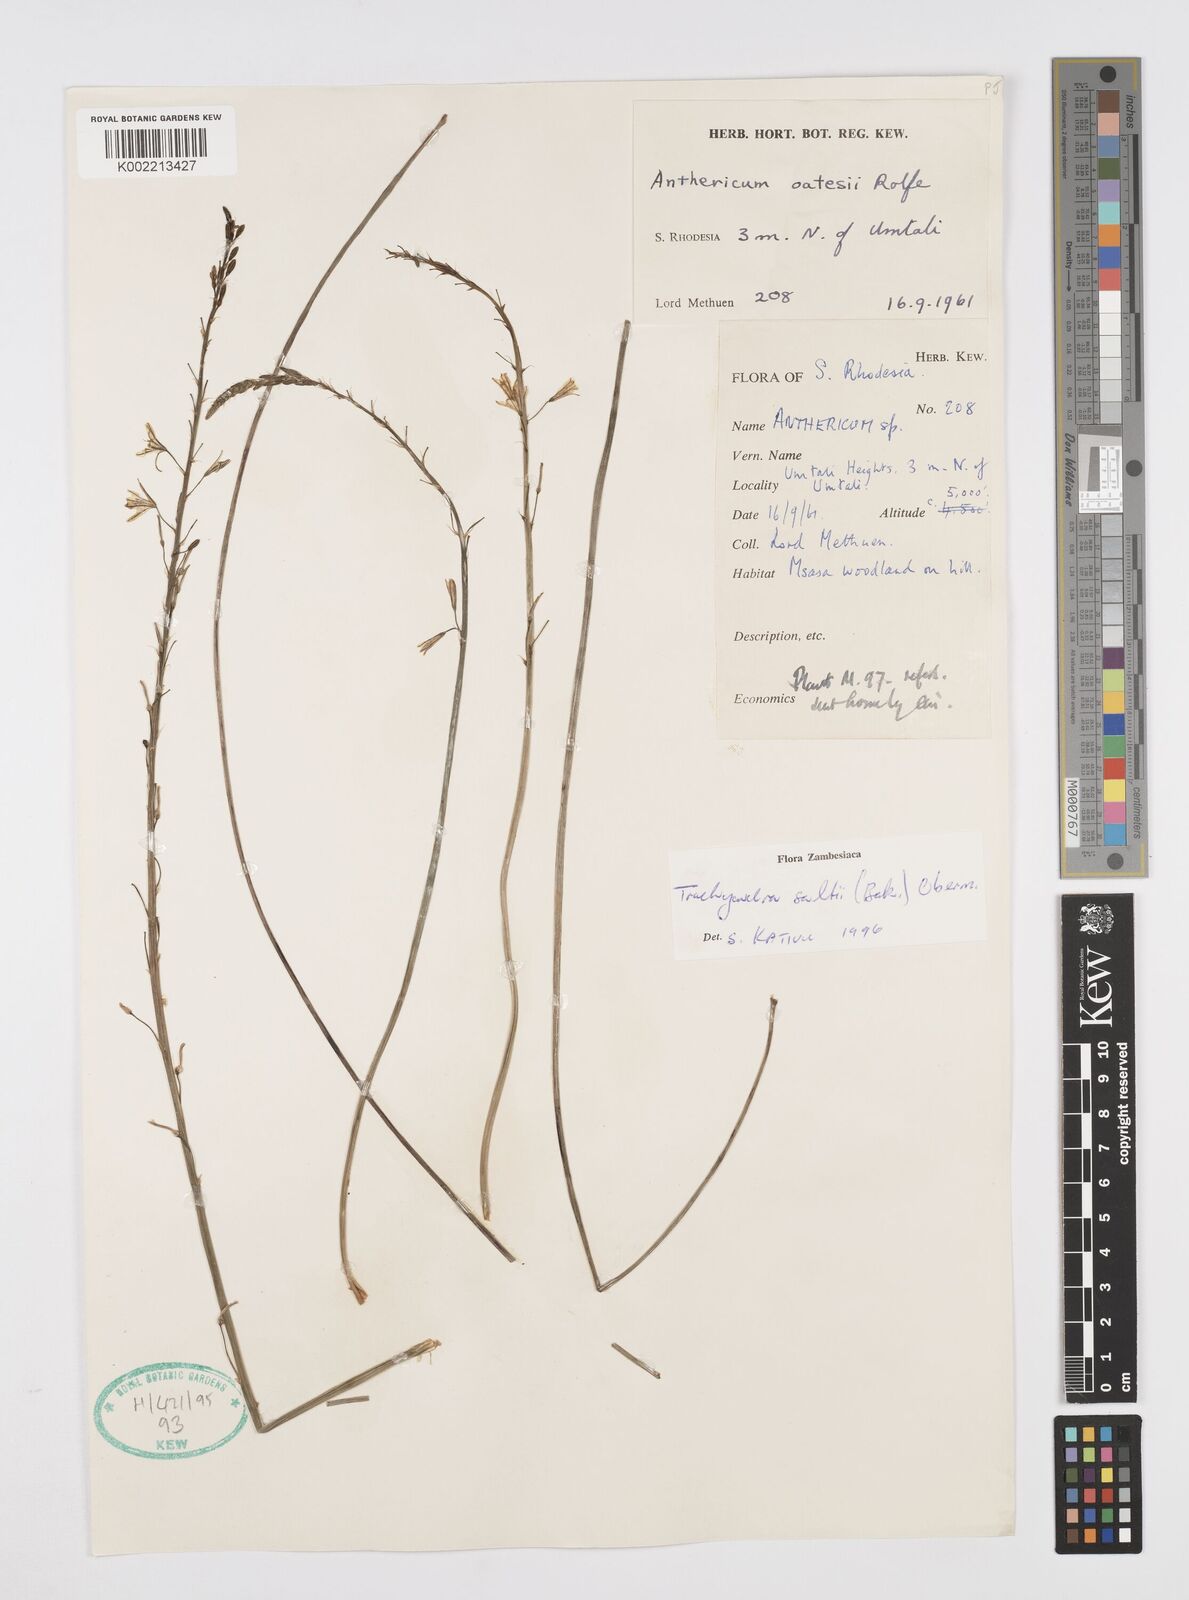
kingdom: Plantae
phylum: Tracheophyta
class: Liliopsida
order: Asparagales
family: Asphodelaceae
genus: Trachyandra
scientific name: Trachyandra saltii
